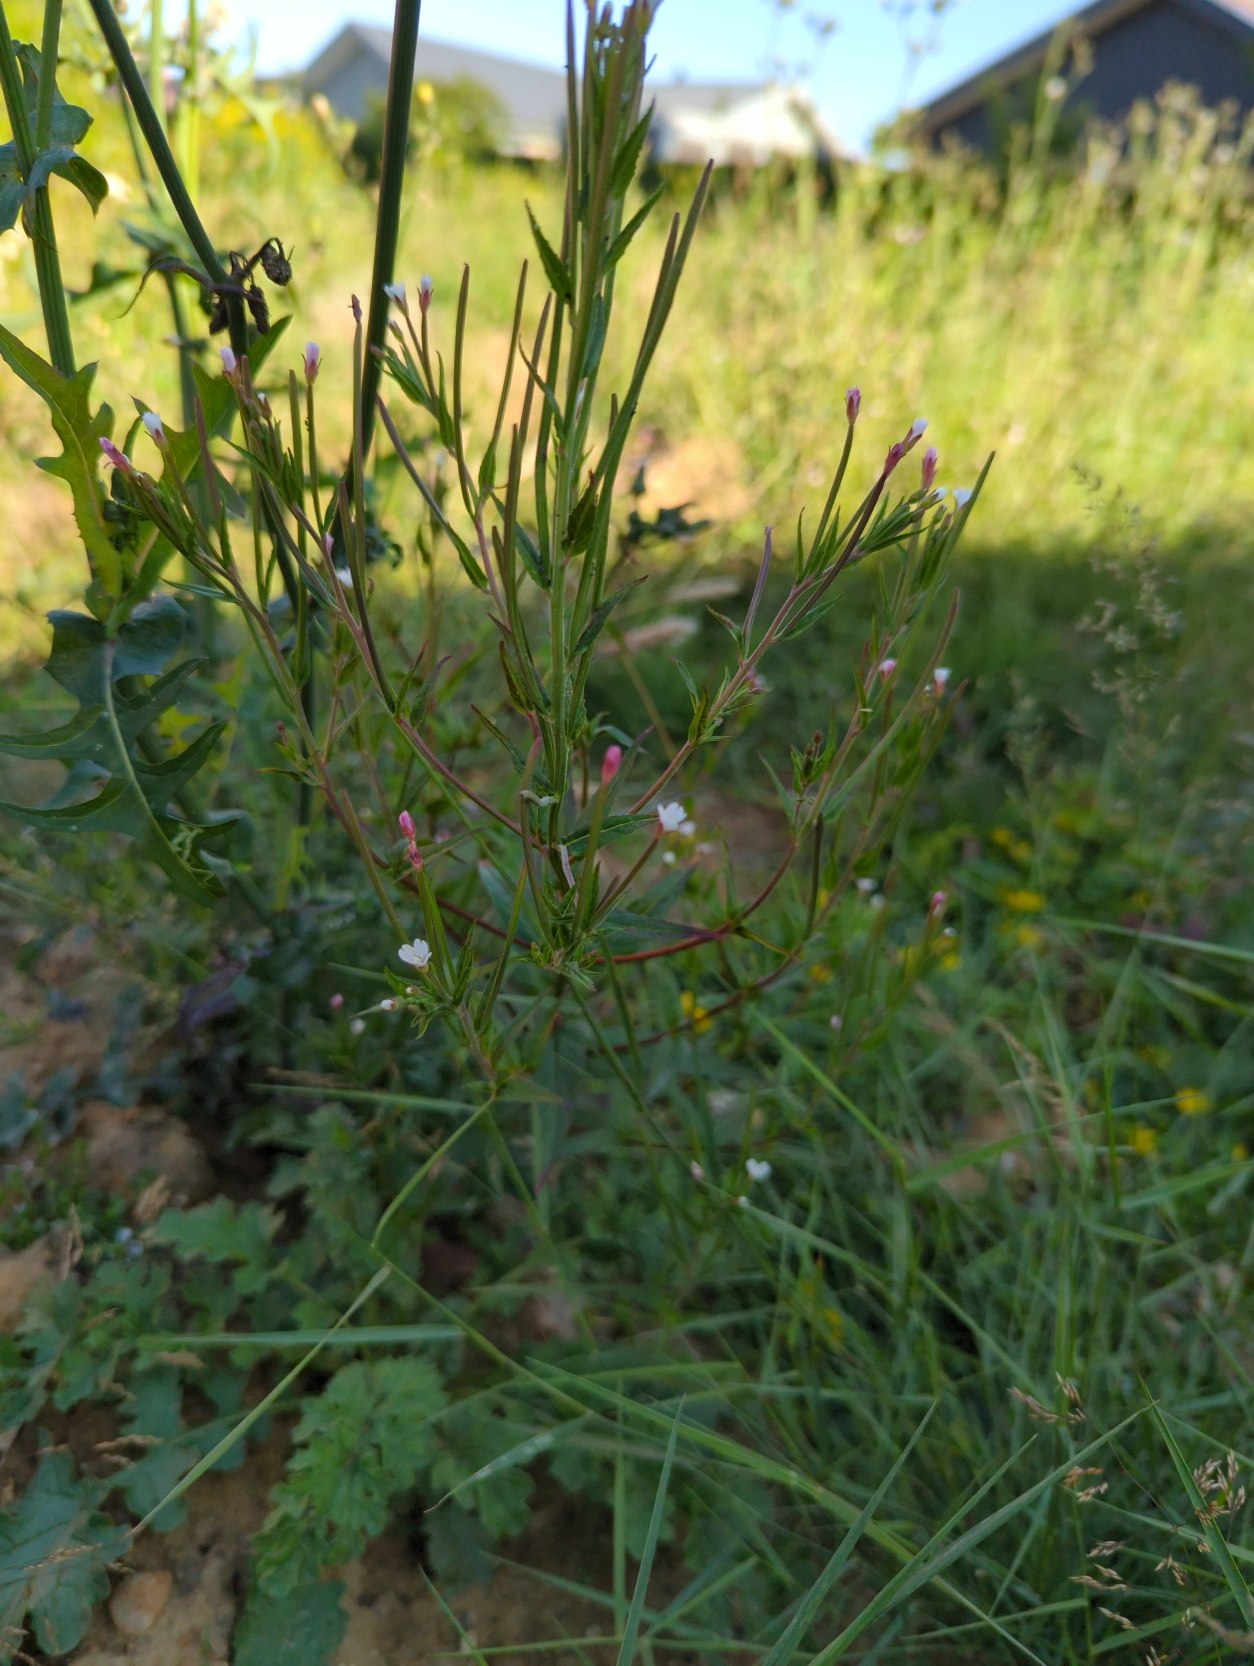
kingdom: Plantae
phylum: Tracheophyta
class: Magnoliopsida
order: Myrtales
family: Onagraceae
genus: Epilobium
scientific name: Epilobium ciliatum
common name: Kirtlet dueurt
